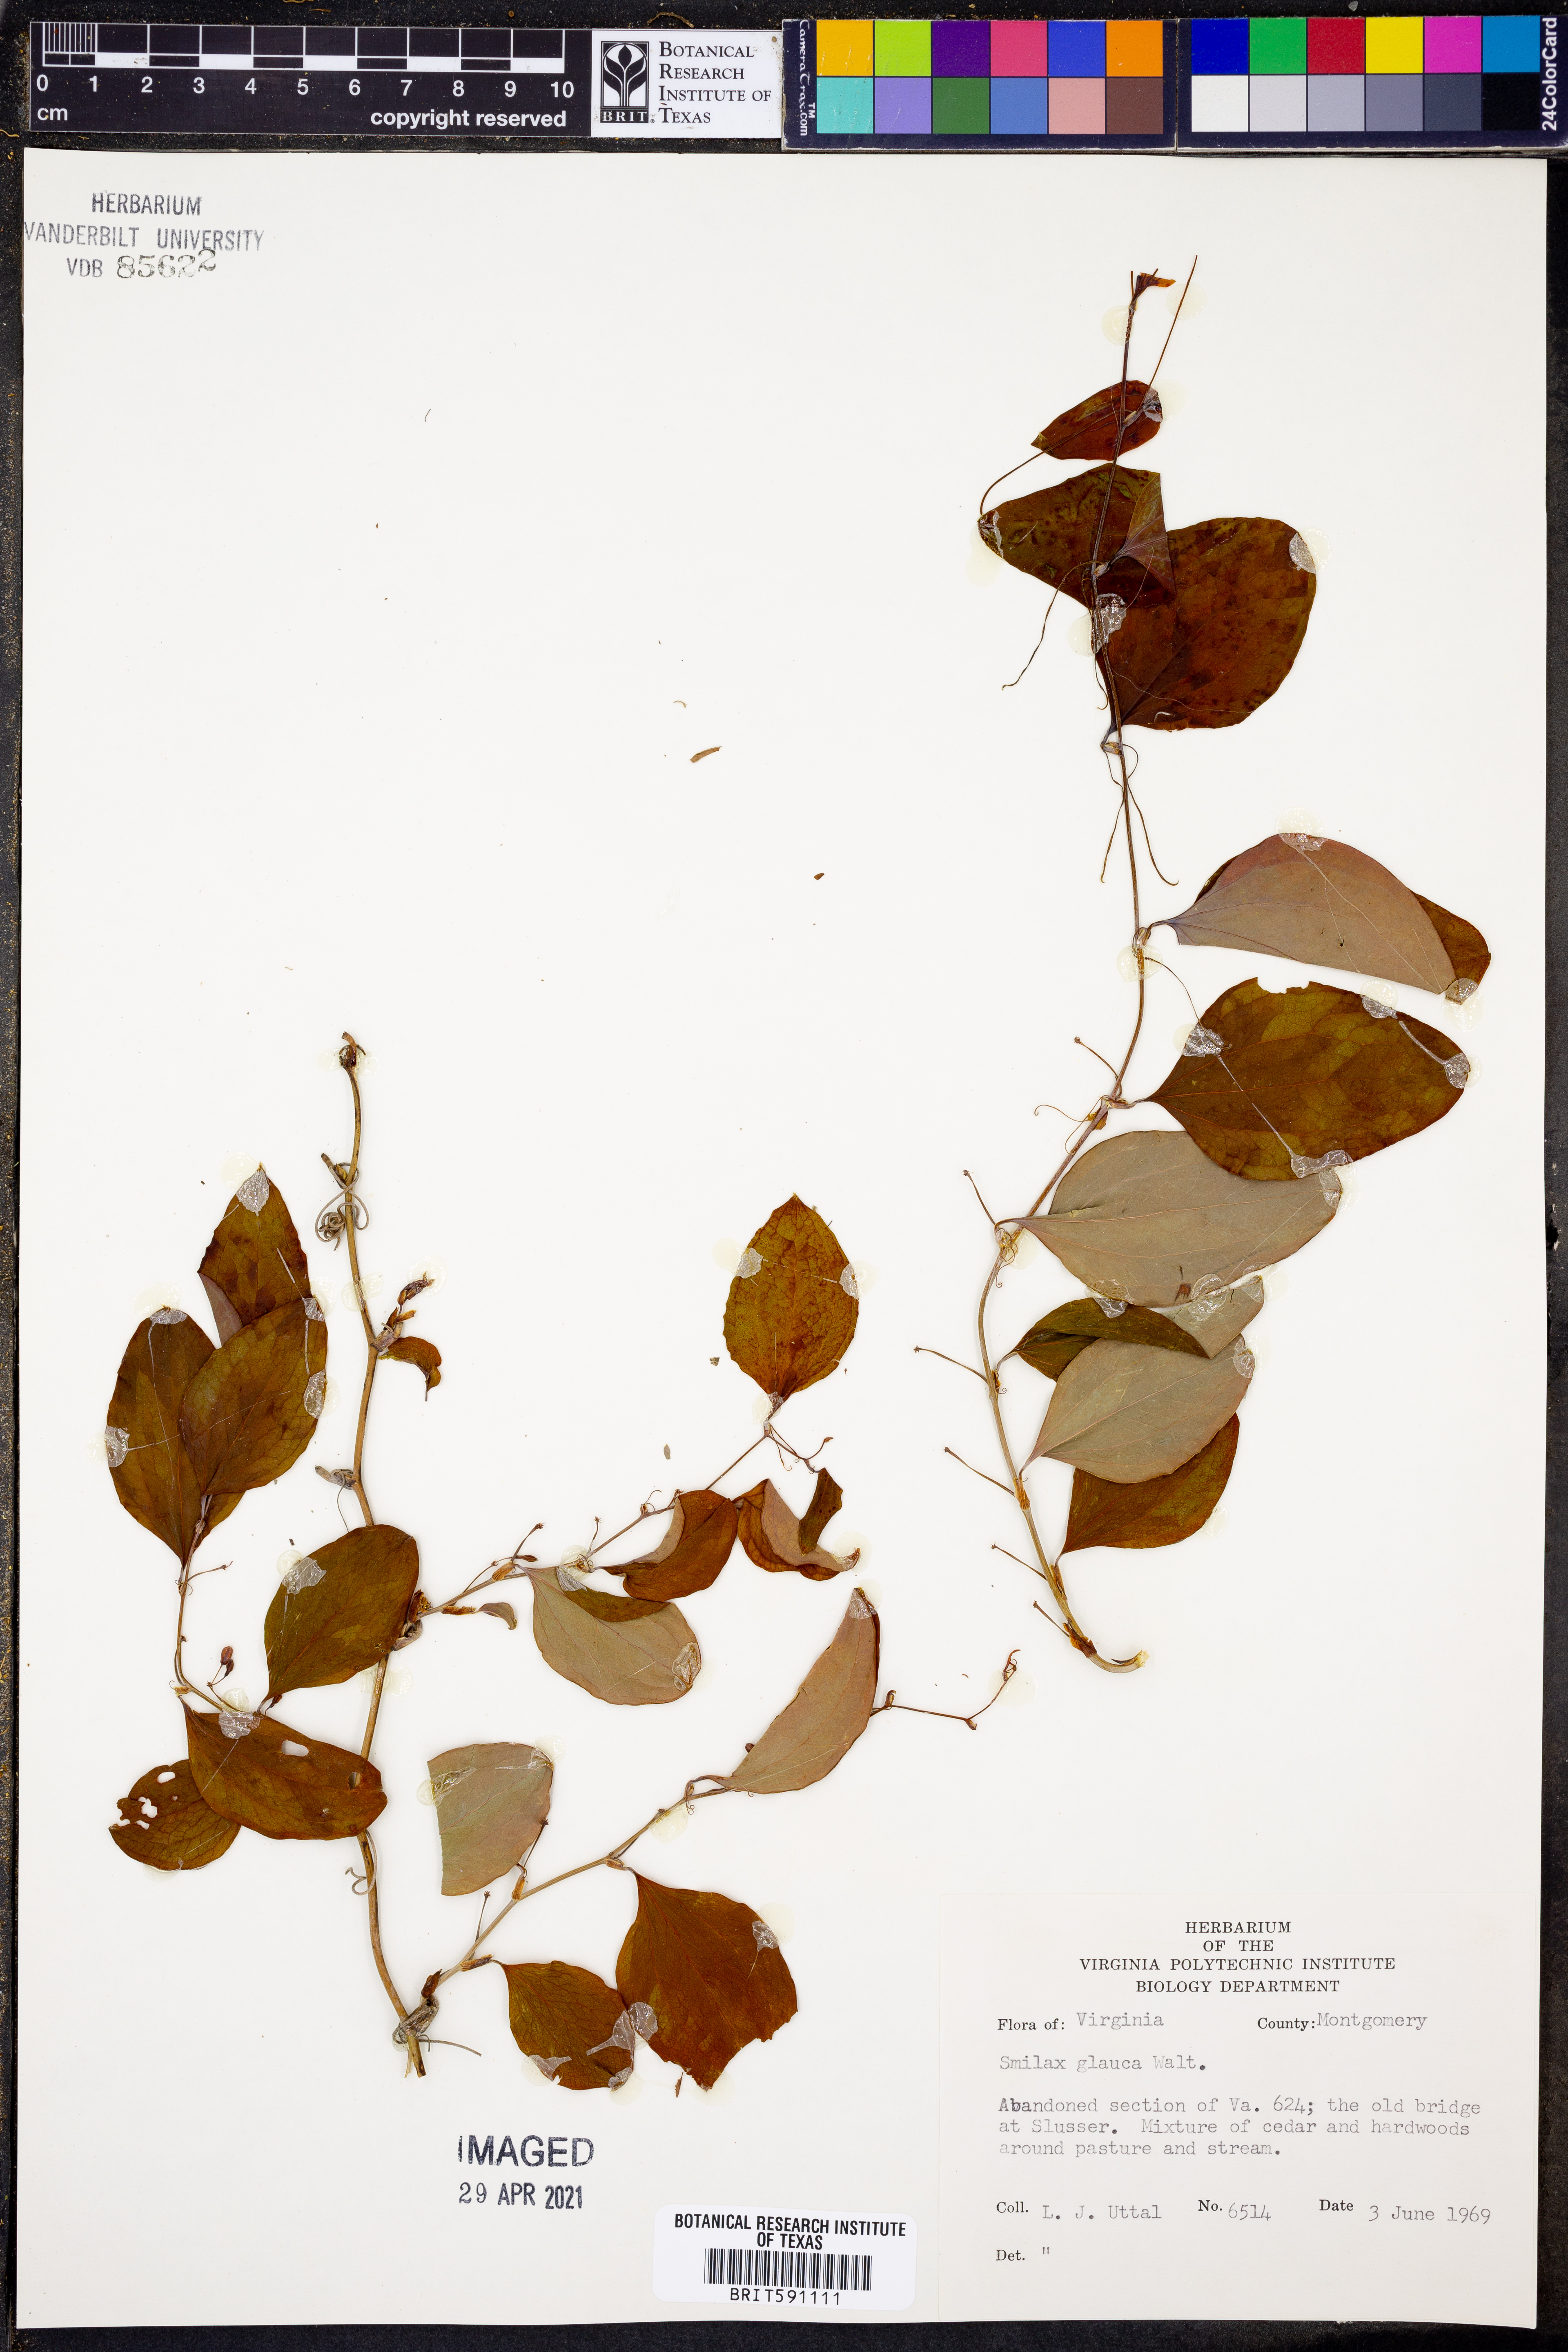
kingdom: Plantae
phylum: Tracheophyta
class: Liliopsida
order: Liliales
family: Smilacaceae
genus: Smilax
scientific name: Smilax glauca
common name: Cat greenbrier
